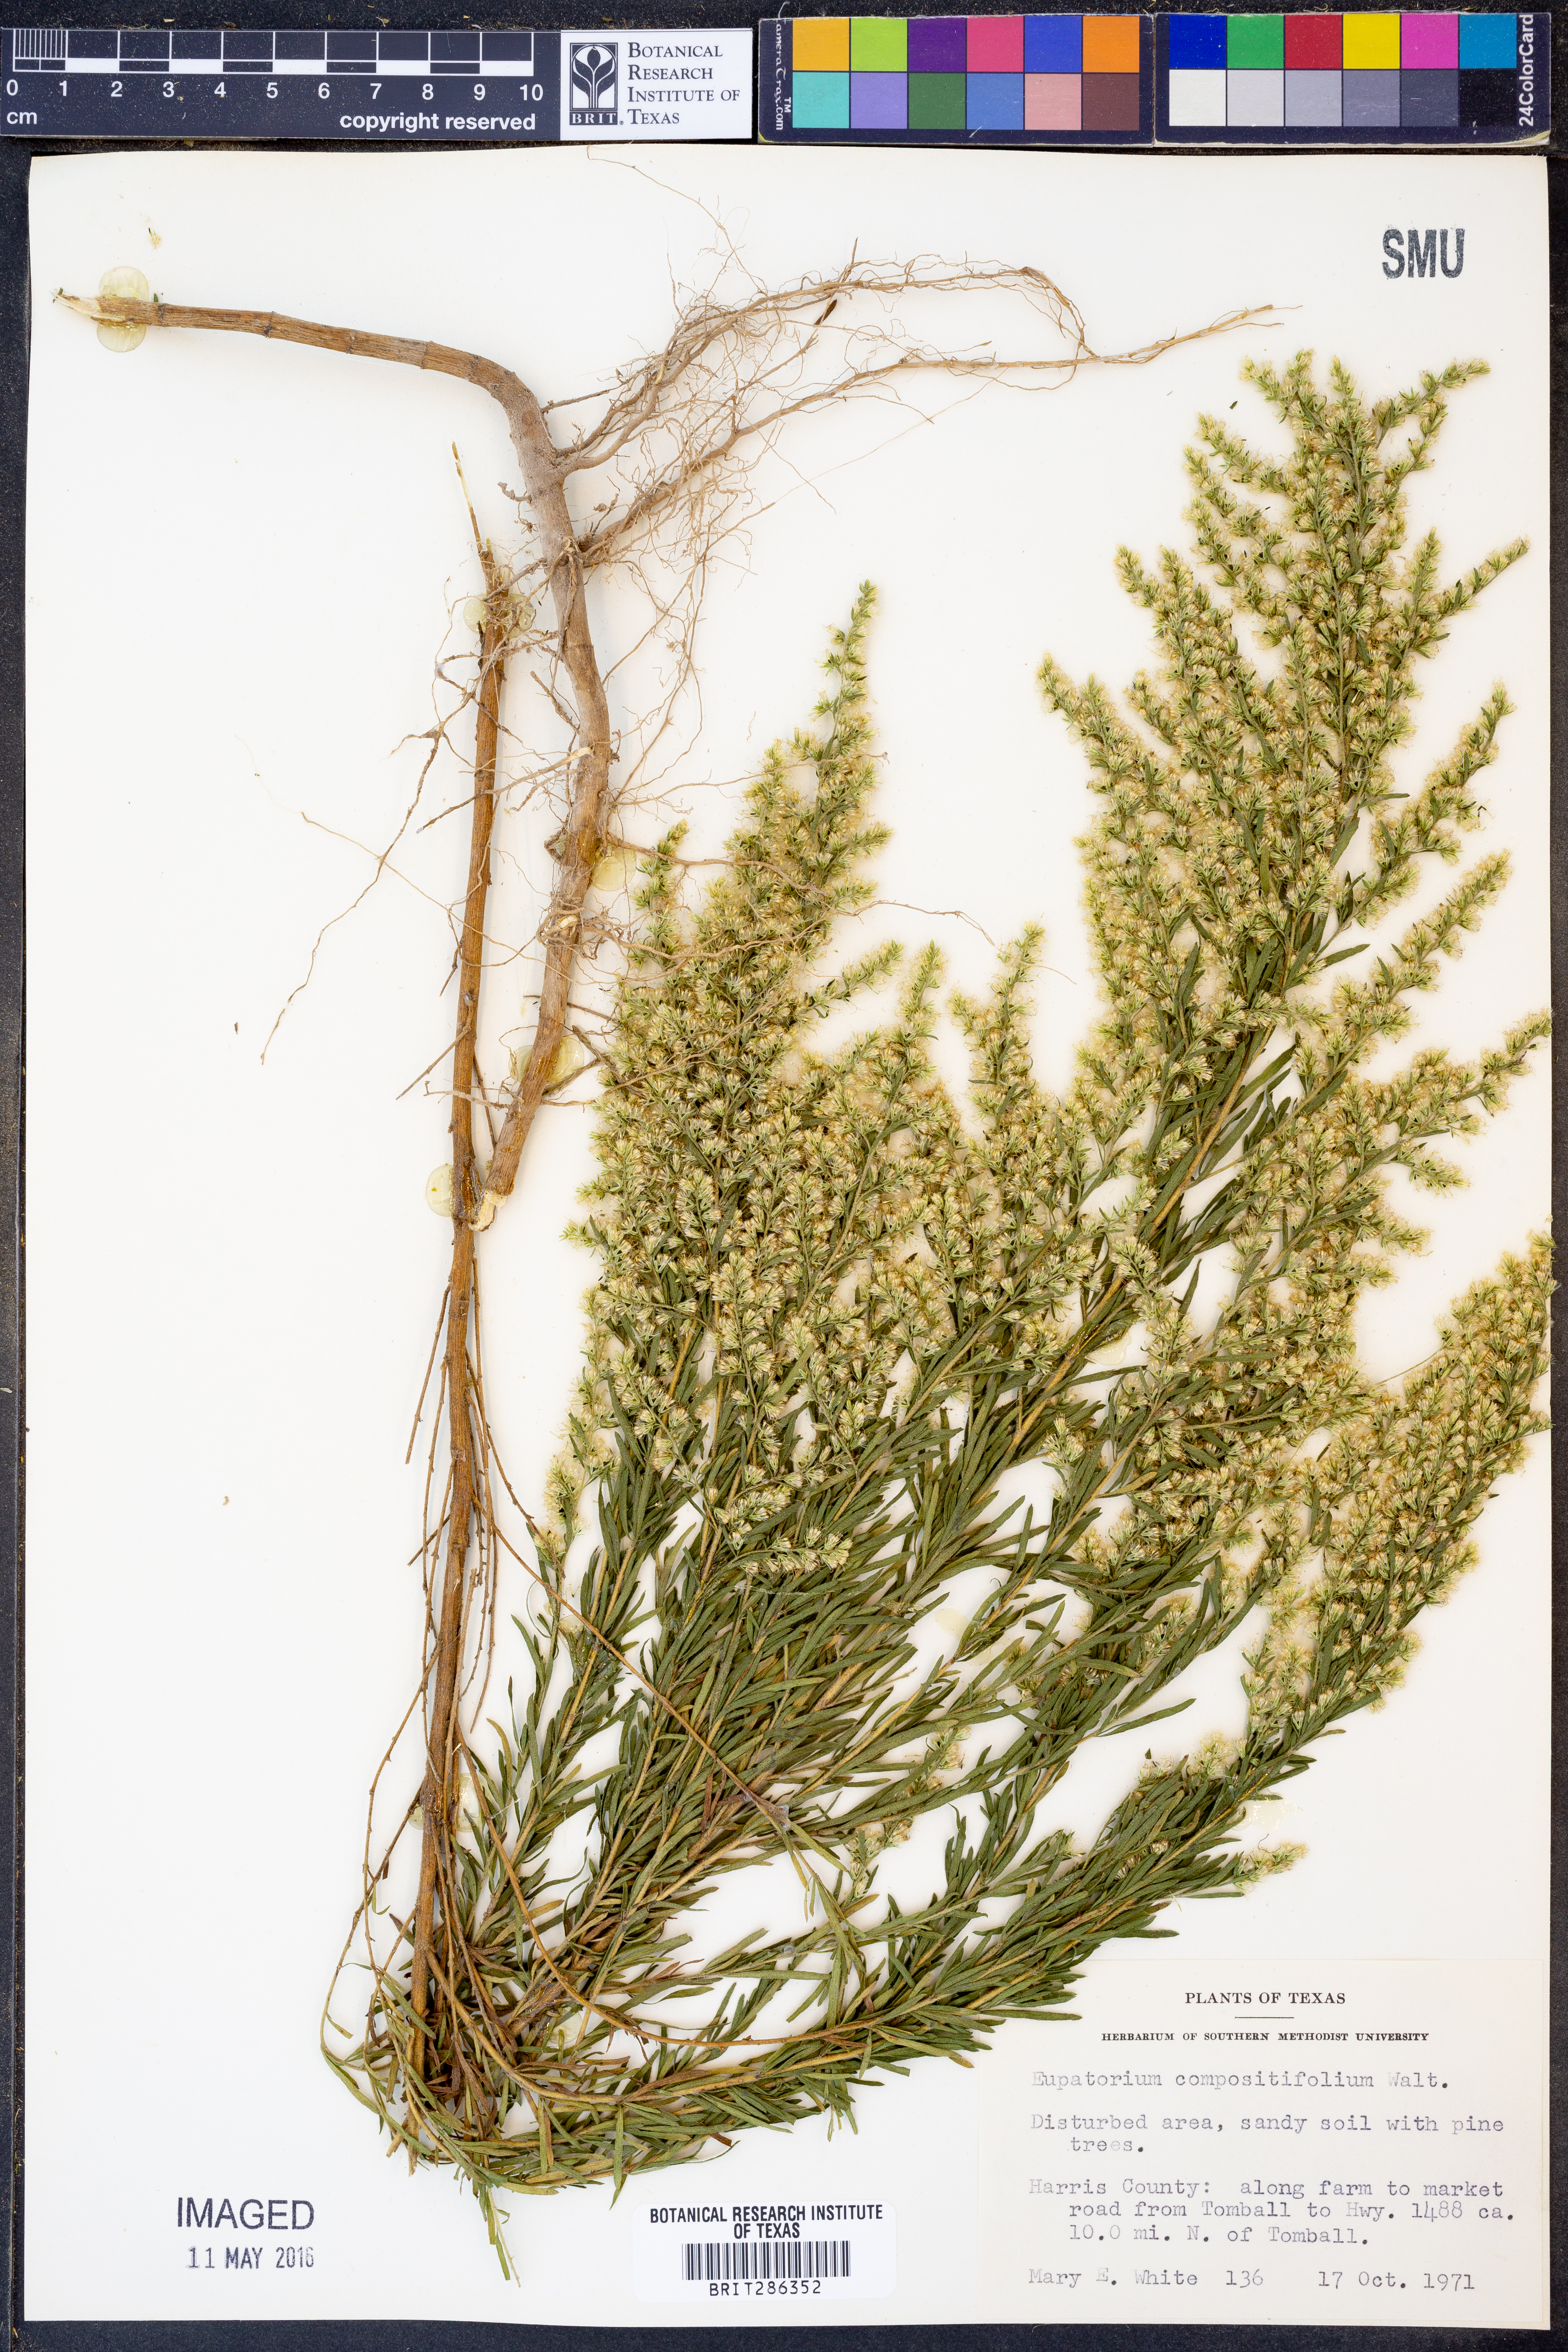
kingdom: Plantae
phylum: Tracheophyta
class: Magnoliopsida
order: Asterales
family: Asteraceae
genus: Eupatorium
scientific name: Eupatorium compositifolium
